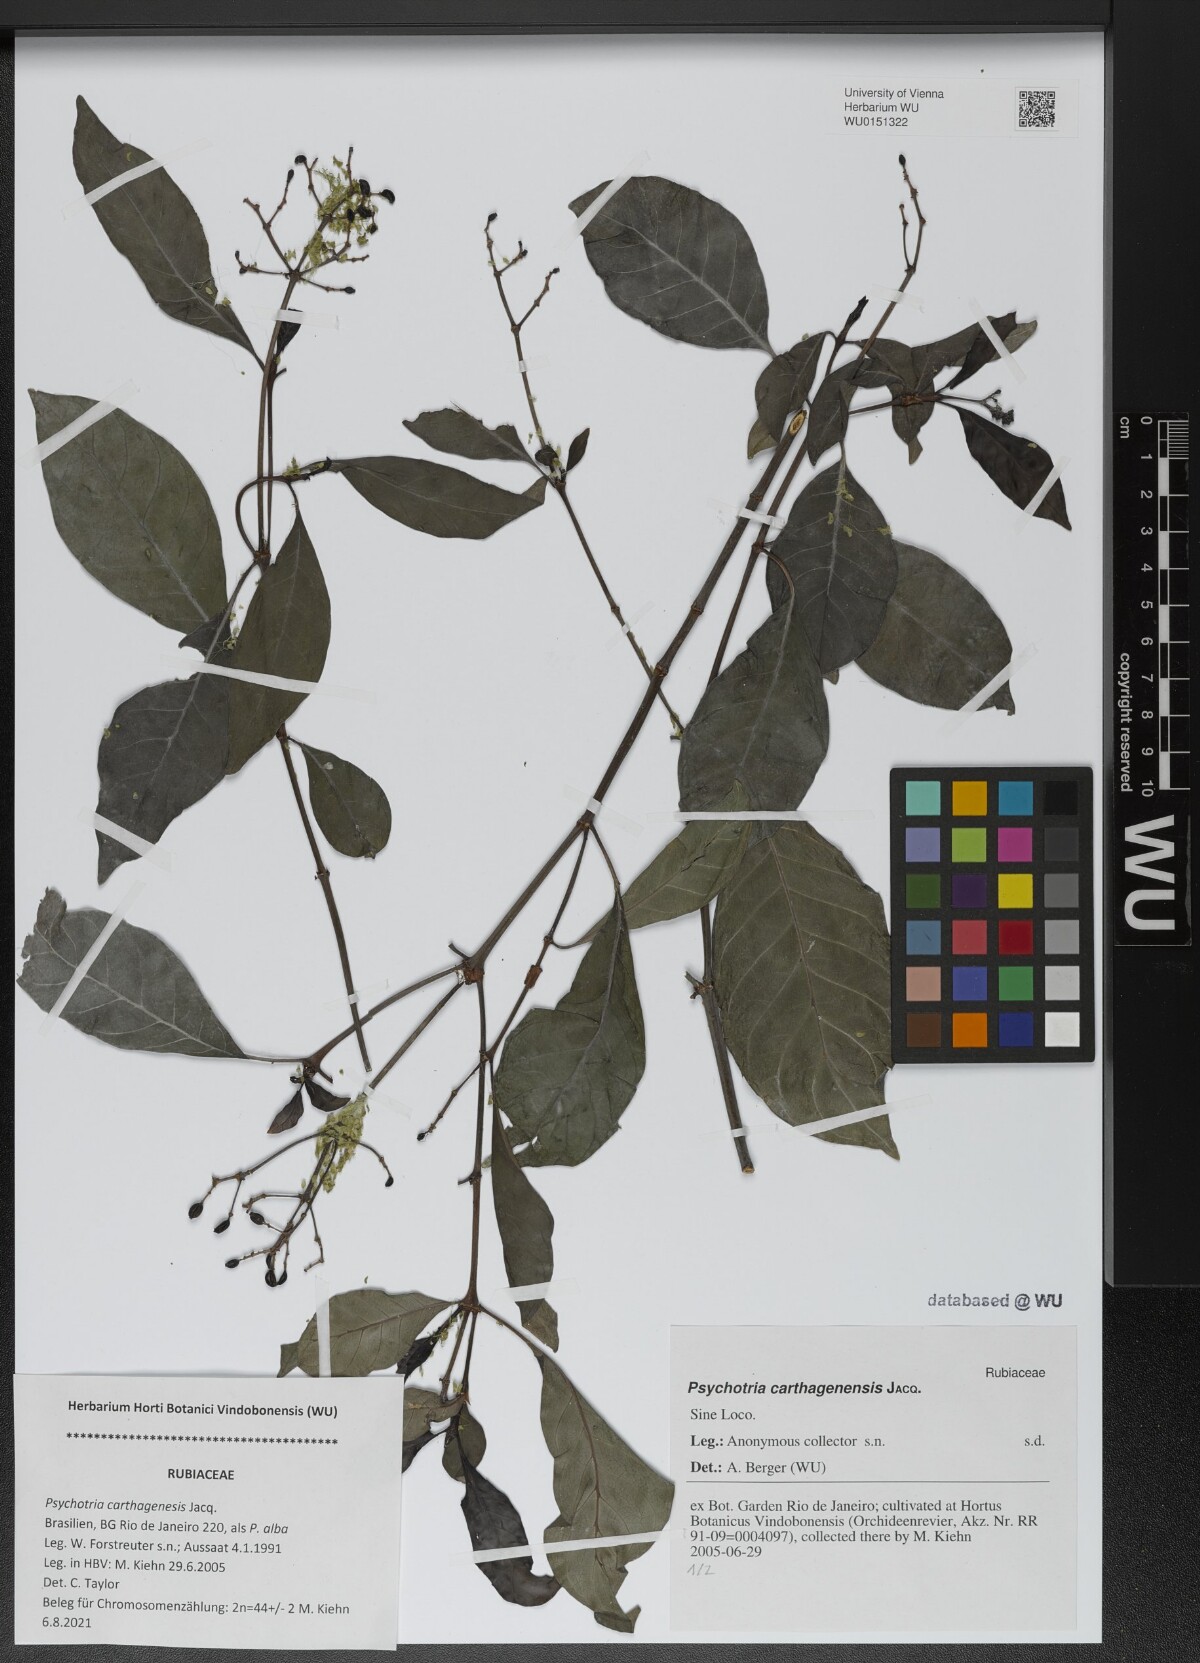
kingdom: Plantae
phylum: Tracheophyta
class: Magnoliopsida
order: Gentianales
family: Rubiaceae
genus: Psychotria
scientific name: Psychotria carthagenensis
